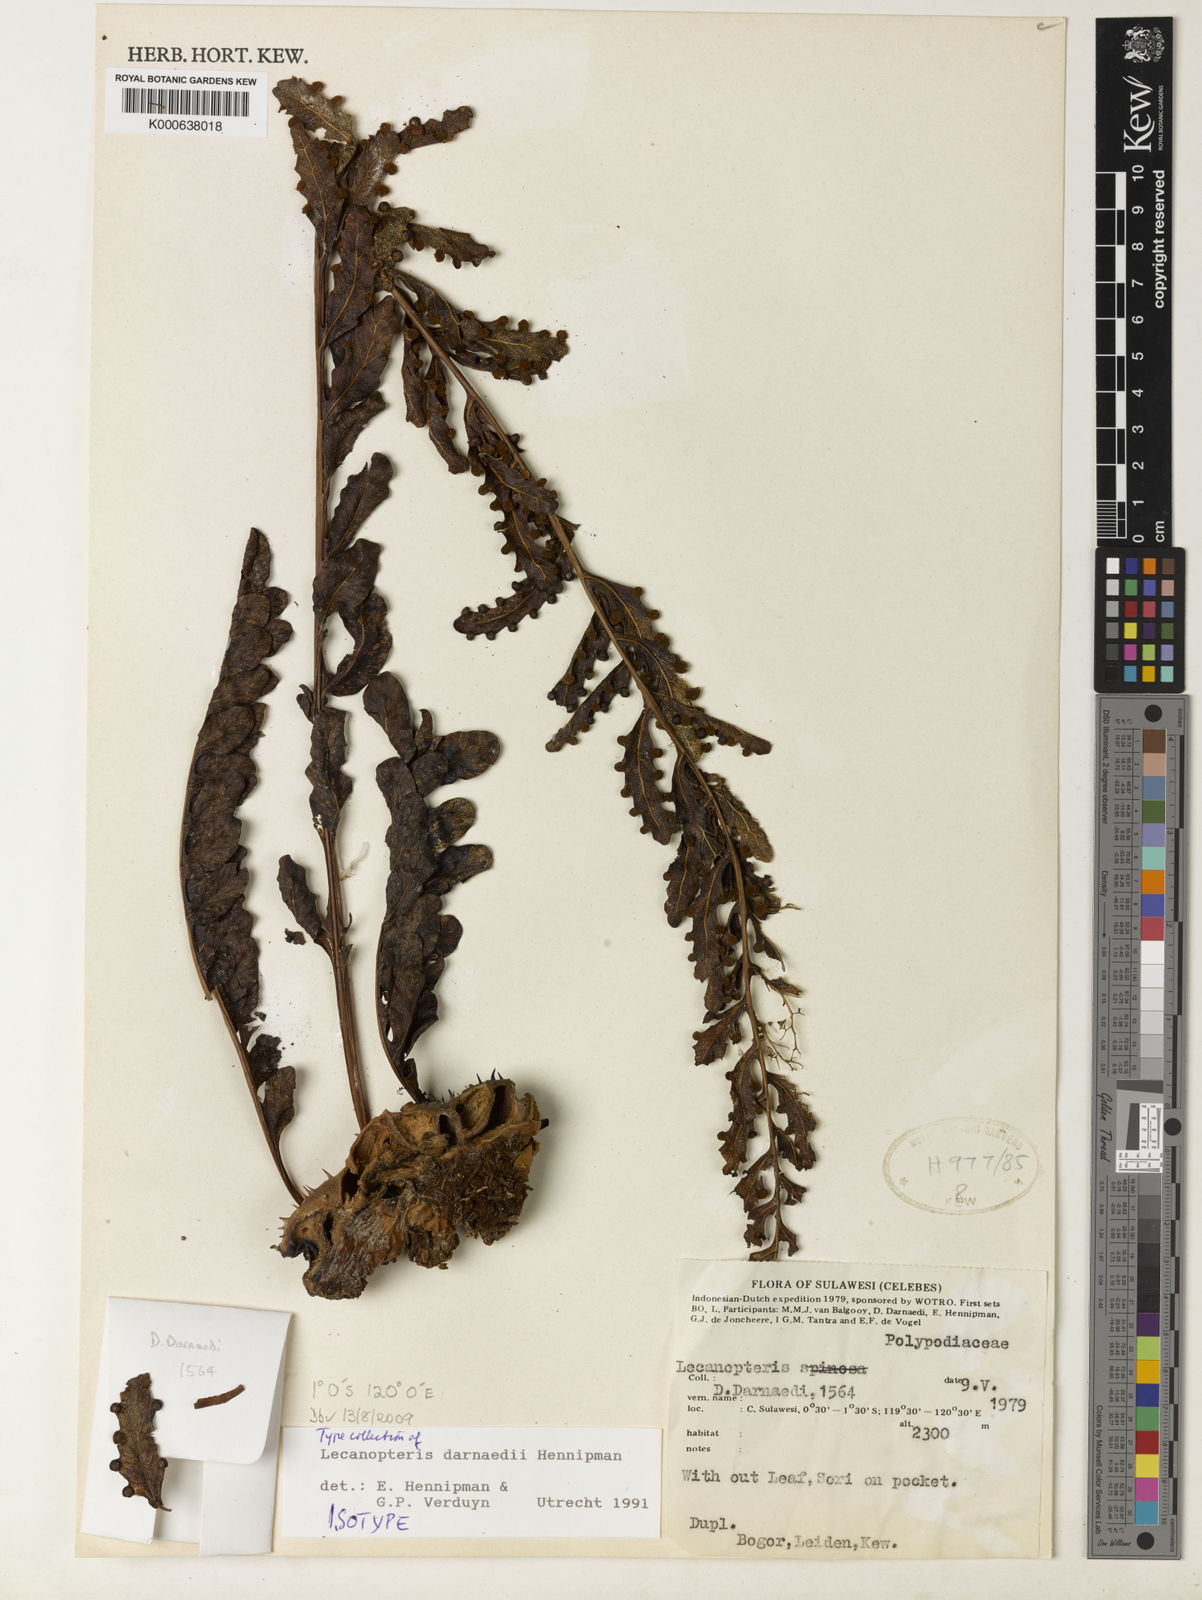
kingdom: Plantae
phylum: Tracheophyta
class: Polypodiopsida
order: Polypodiales
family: Polypodiaceae
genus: Lecanopteris
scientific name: Lecanopteris darnaedii
